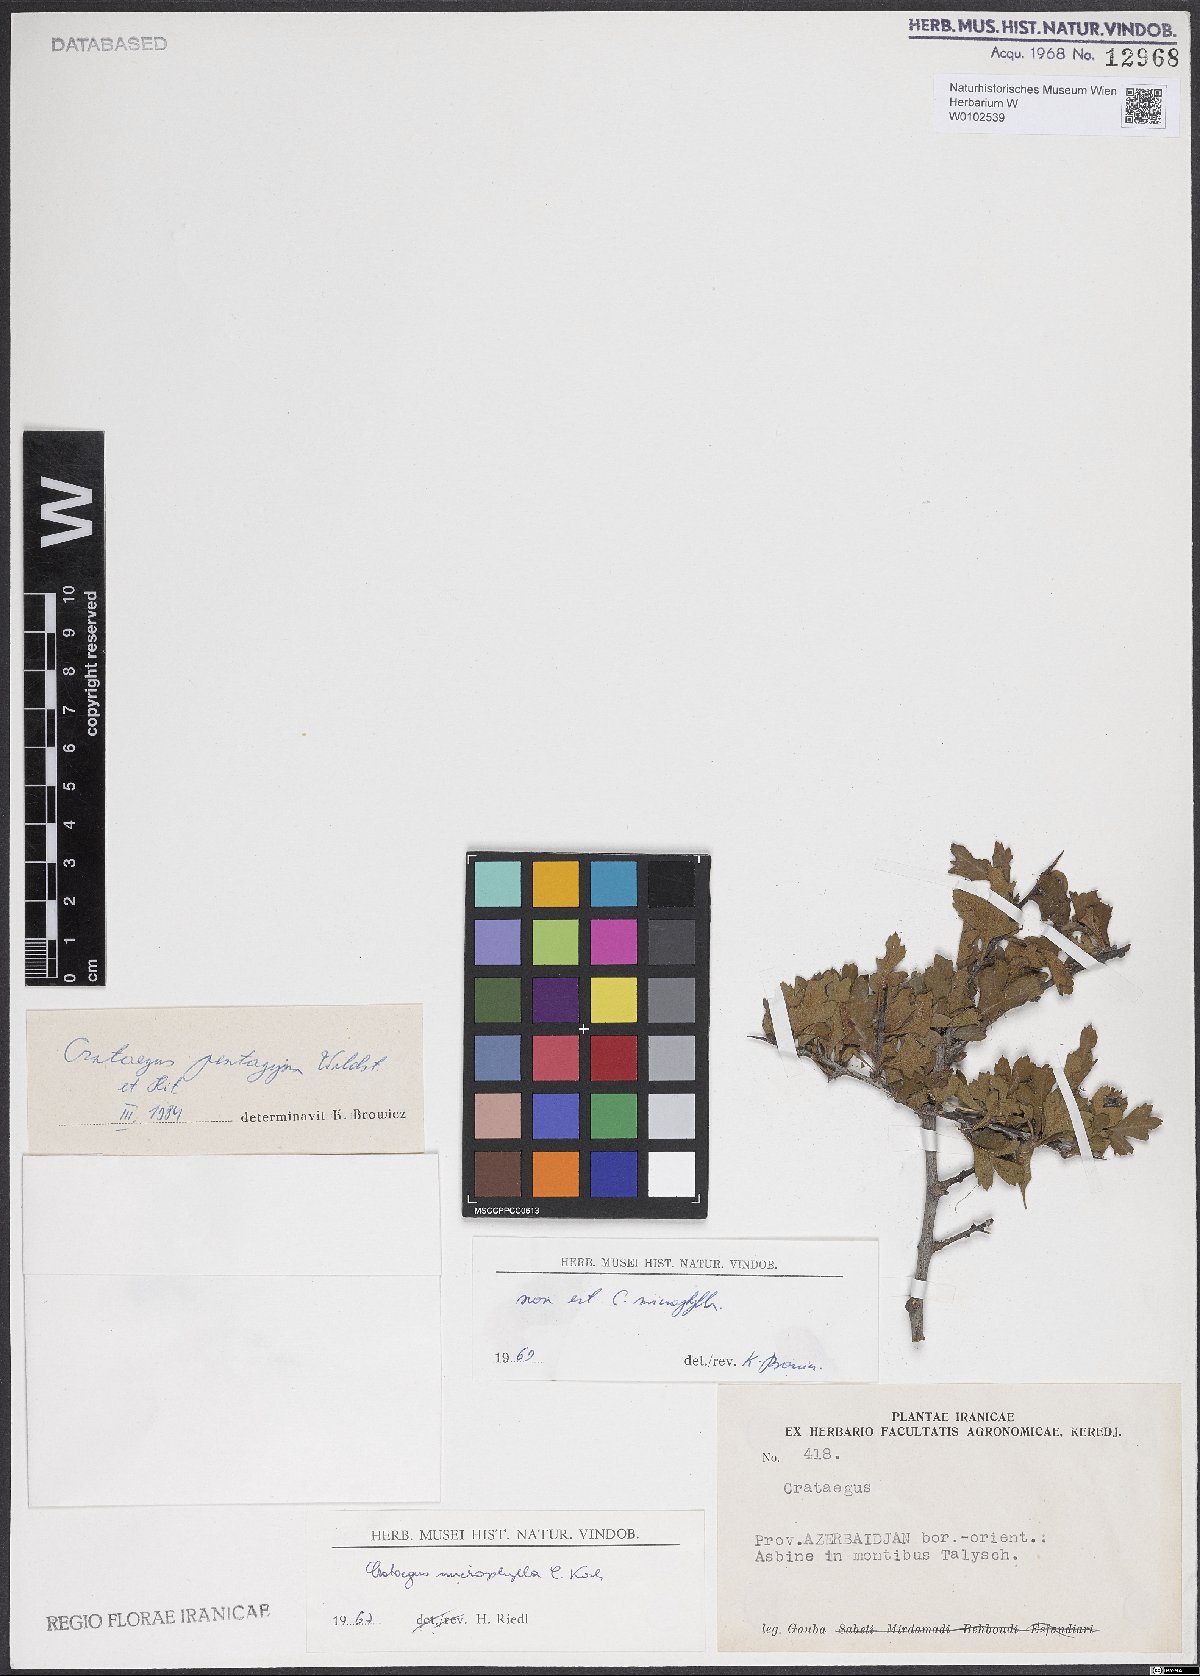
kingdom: Plantae
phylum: Tracheophyta
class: Magnoliopsida
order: Rosales
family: Rosaceae
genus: Crataegus
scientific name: Crataegus pentagyna
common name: Small-flowered black hawthorn
